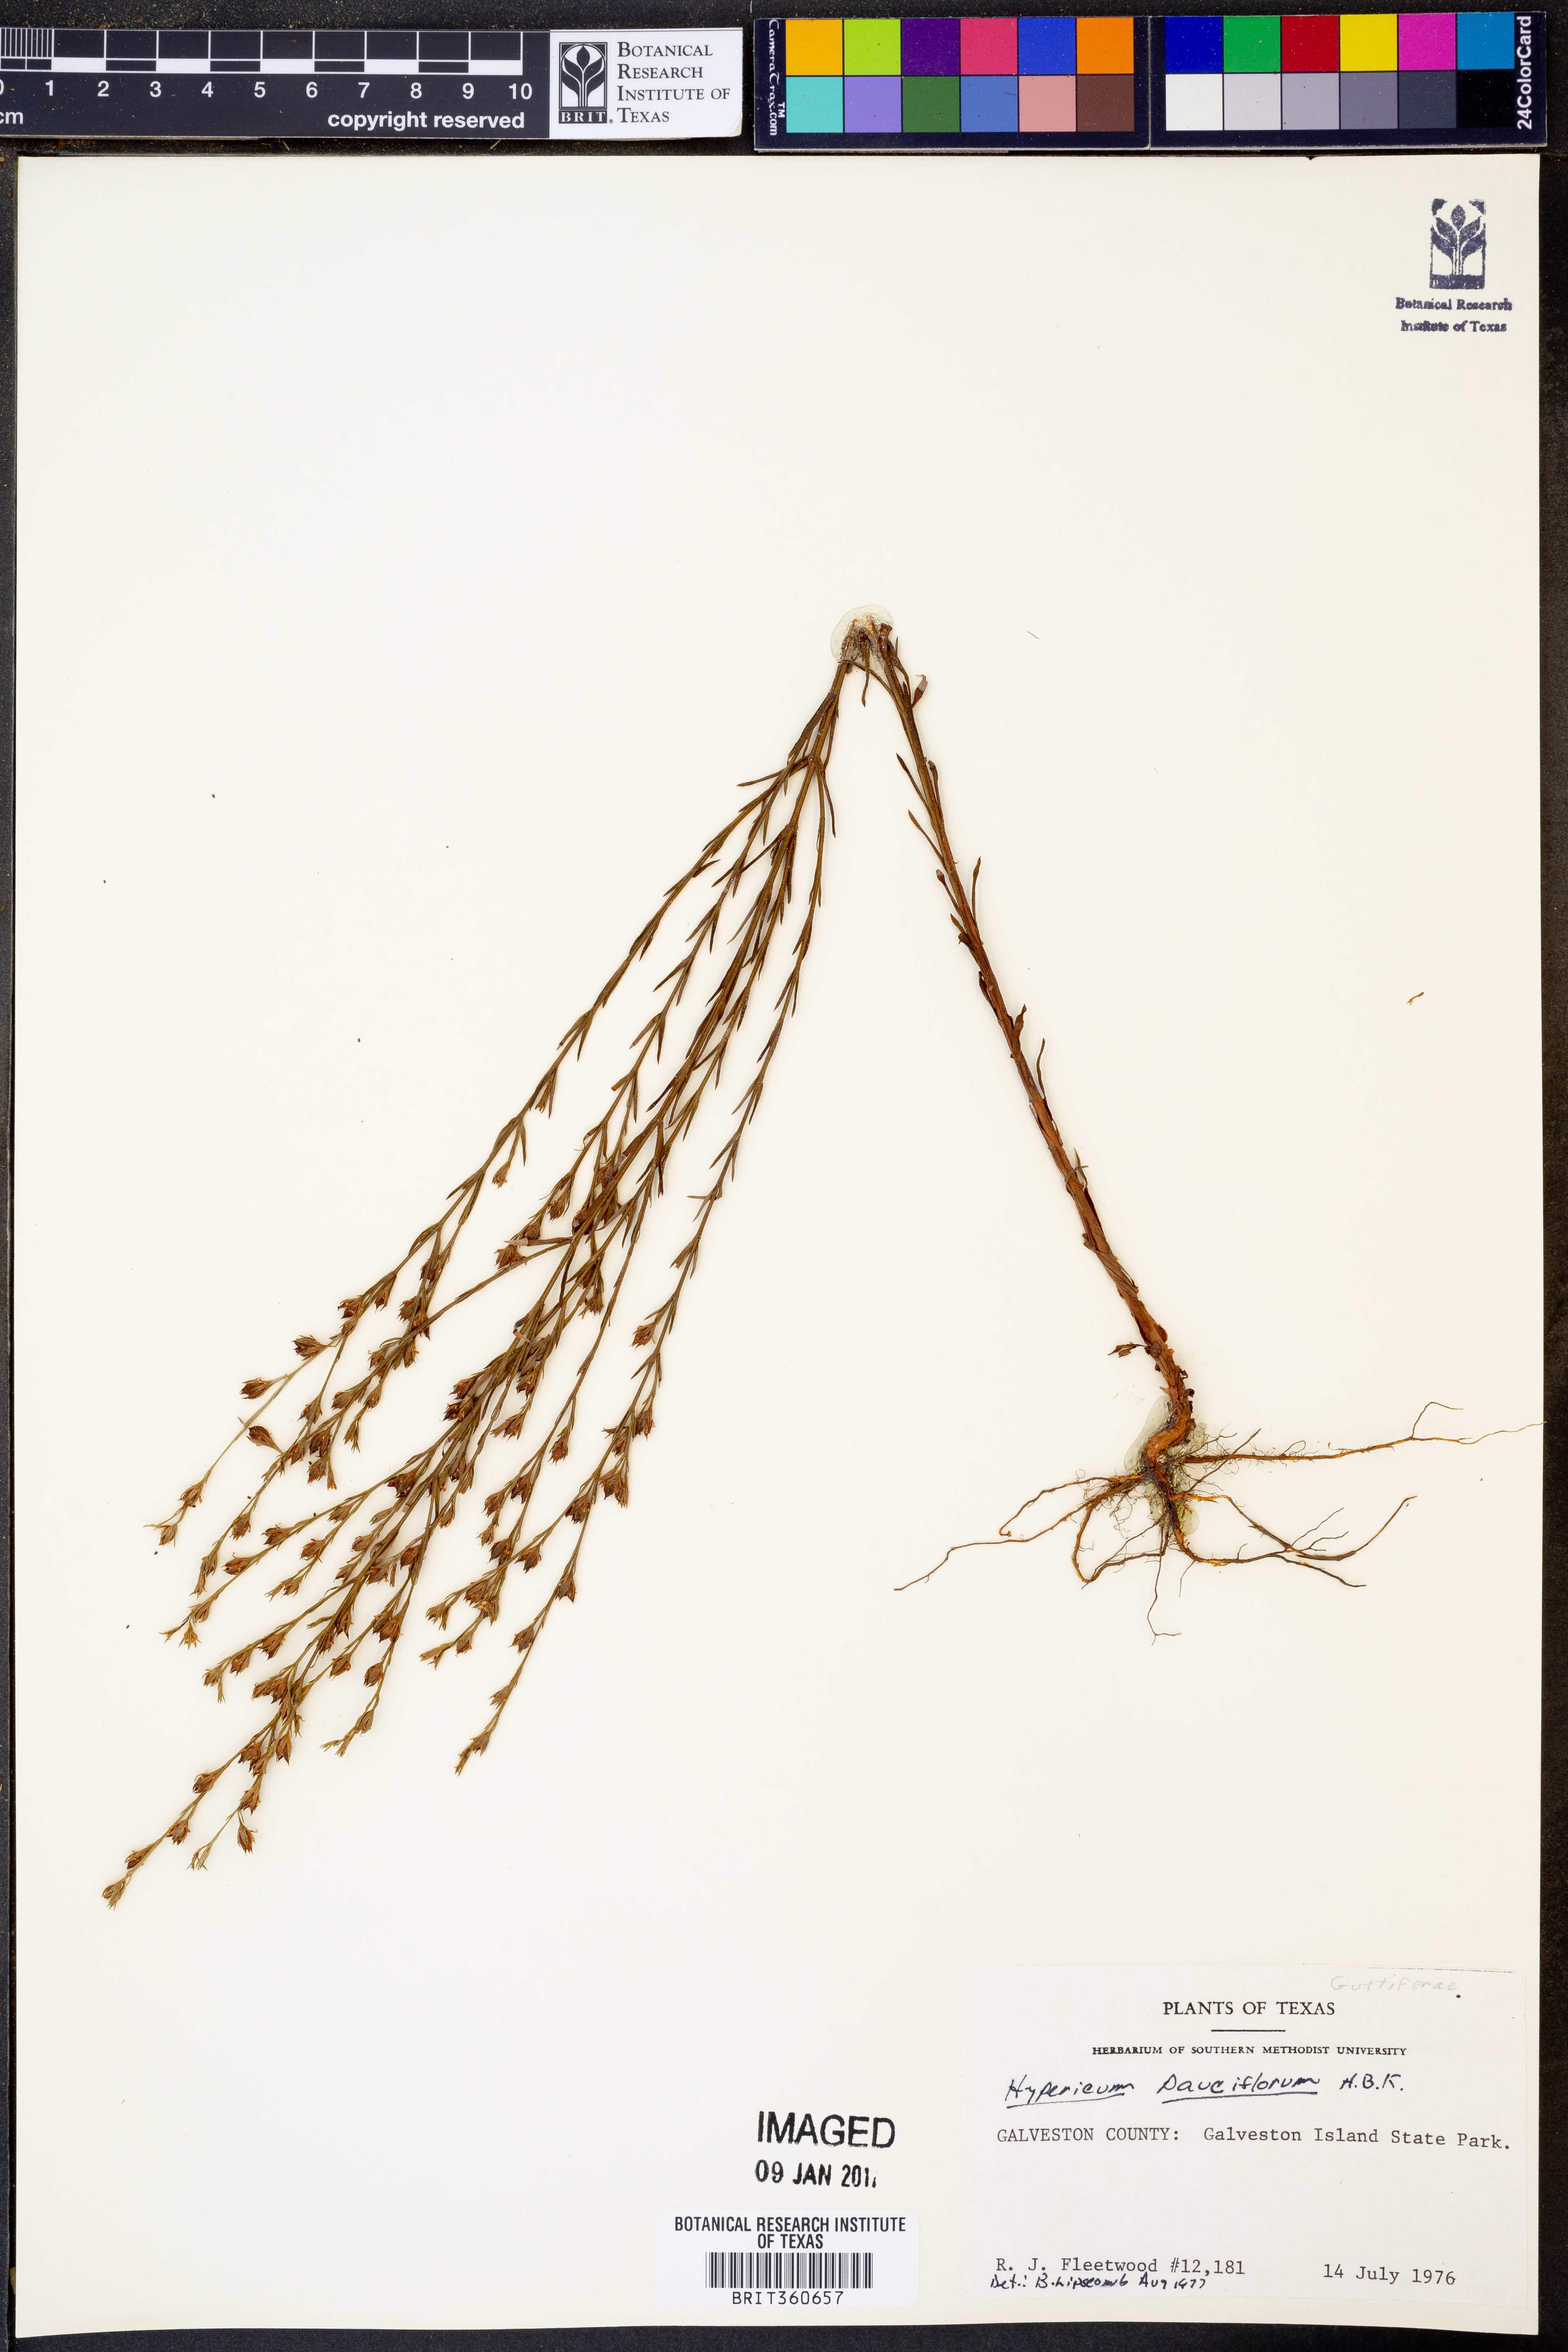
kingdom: Plantae
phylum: Tracheophyta
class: Magnoliopsida
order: Malpighiales
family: Hypericaceae
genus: Hypericum
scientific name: Hypericum pauciflorum
